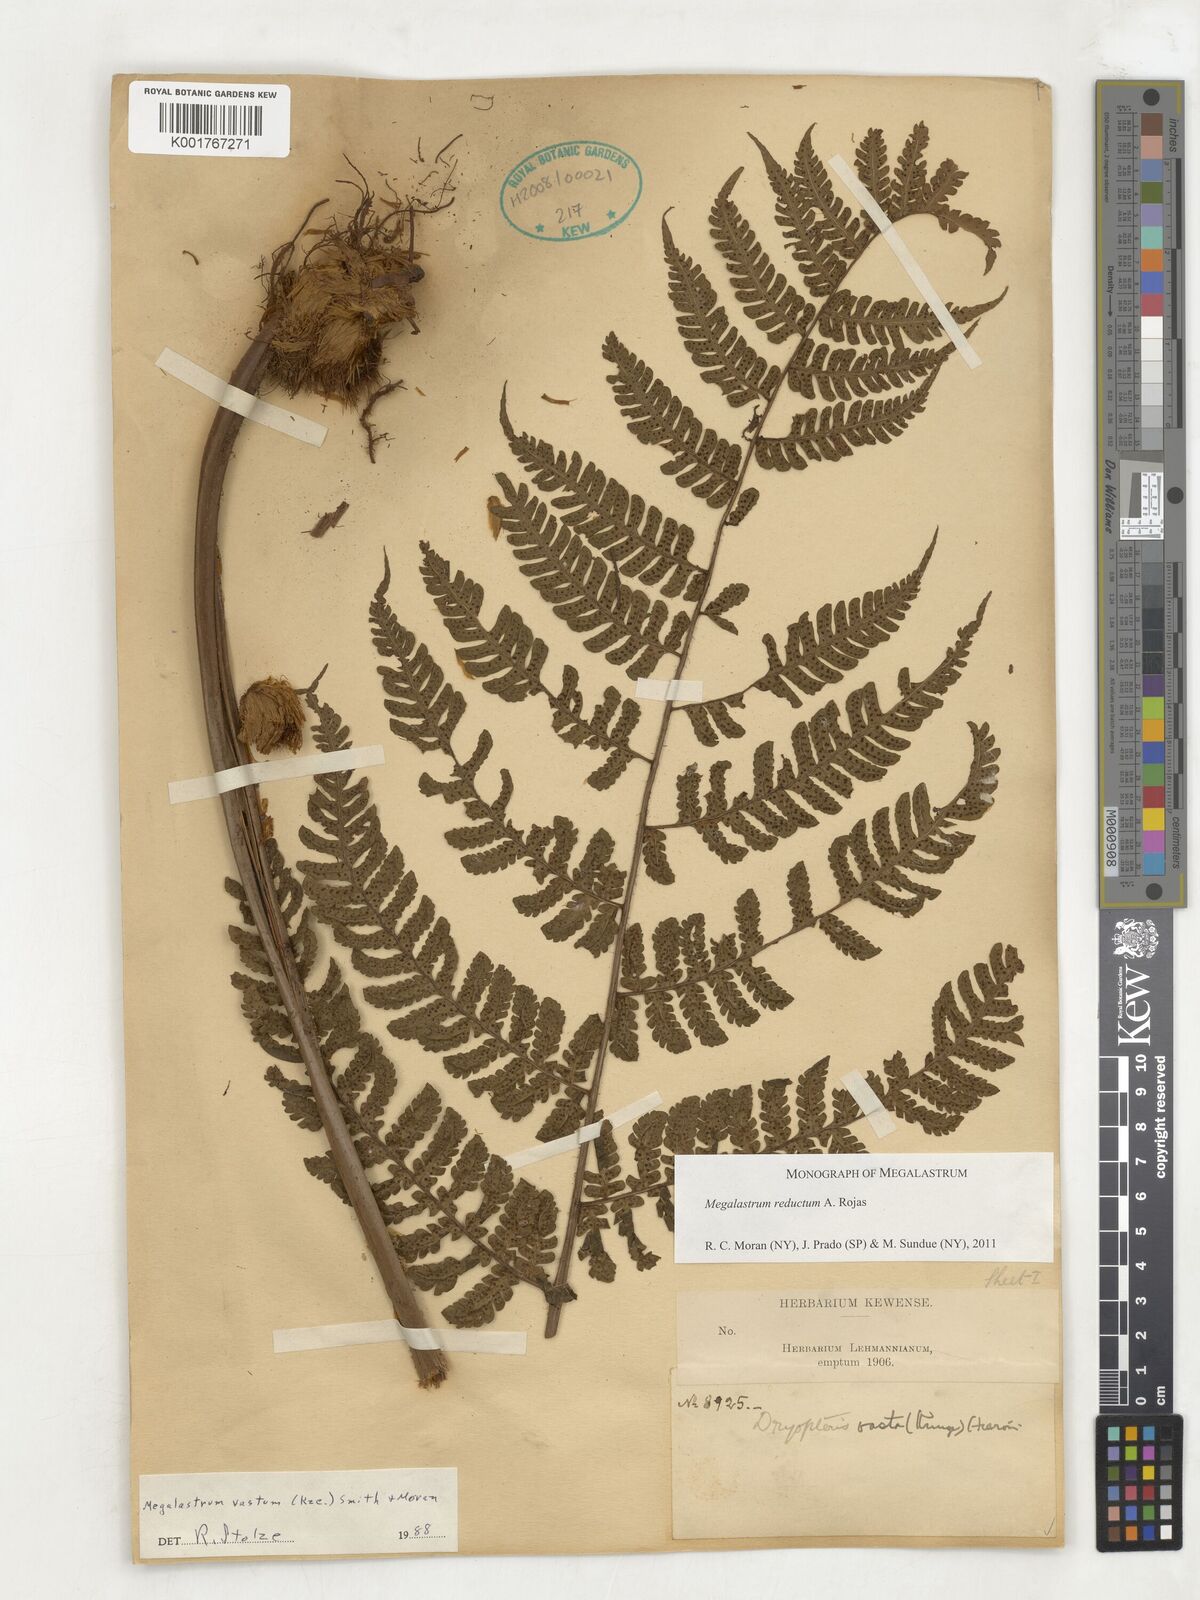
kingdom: Plantae
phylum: Tracheophyta
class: Polypodiopsida
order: Polypodiales
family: Dryopteridaceae
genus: Megalastrum
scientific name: Megalastrum reductum
